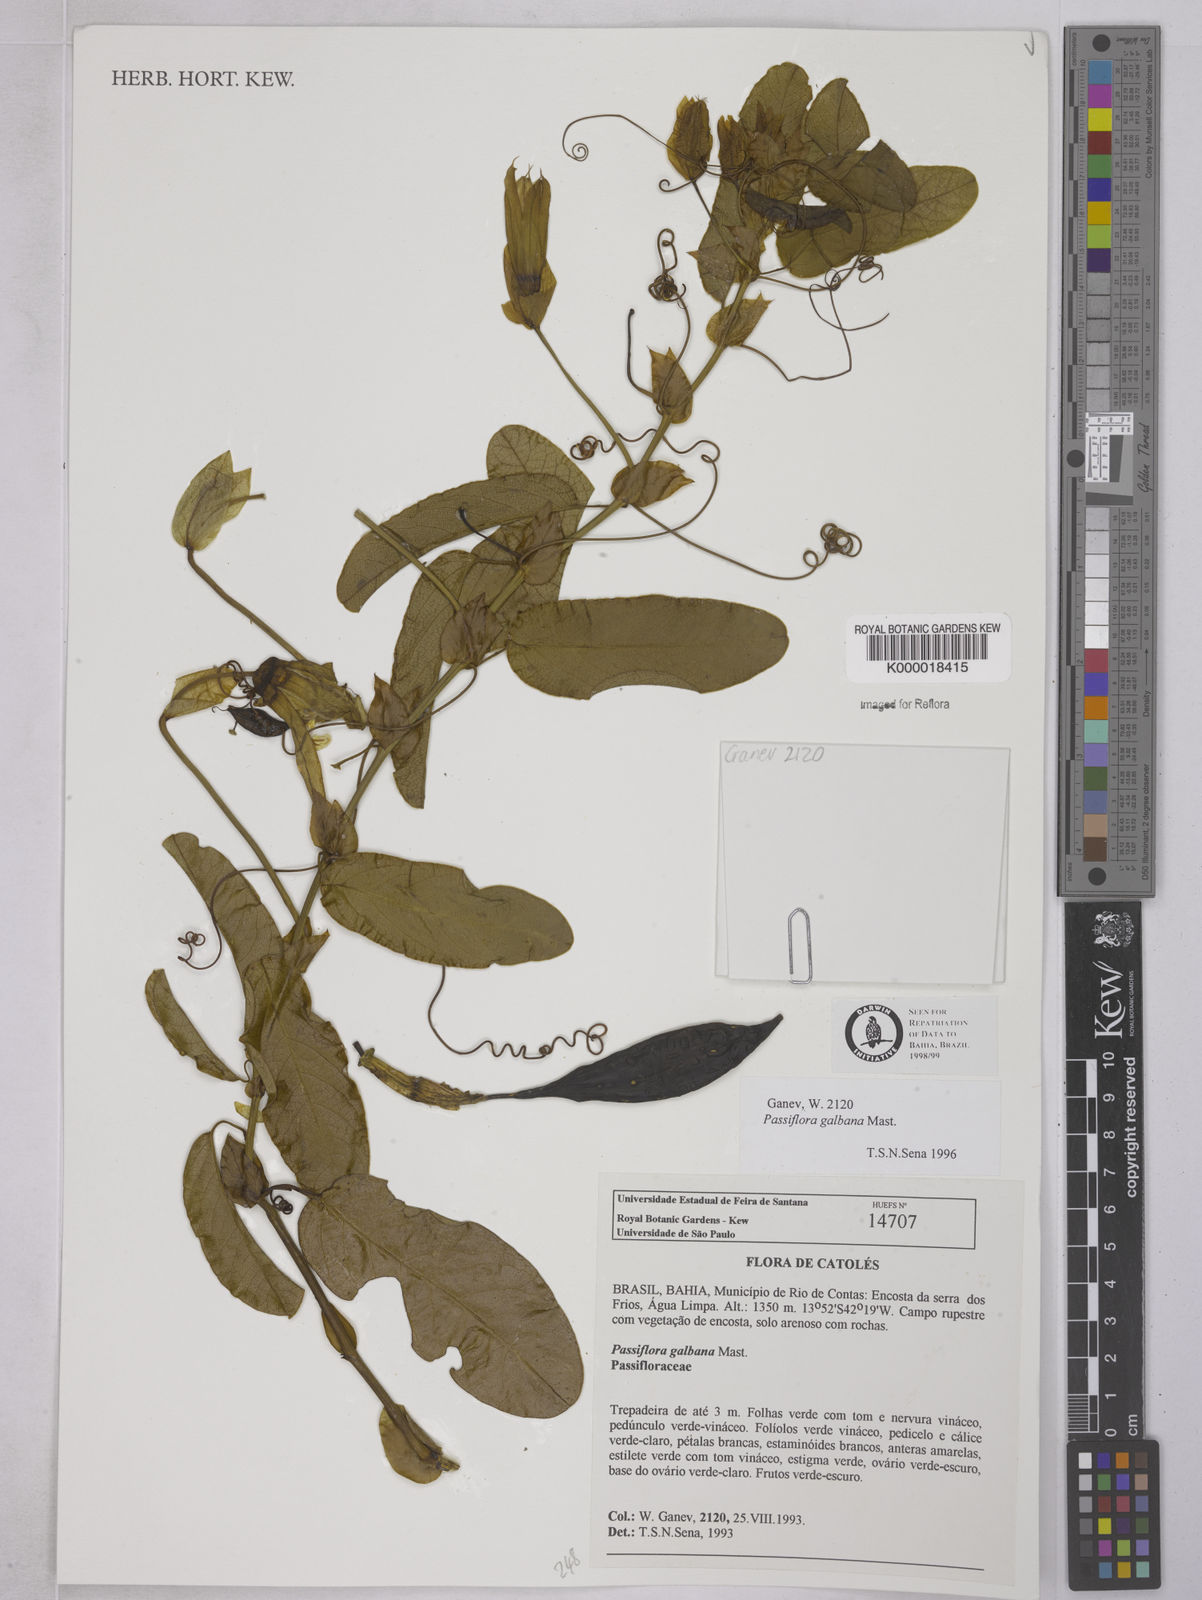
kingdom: Plantae
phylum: Tracheophyta
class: Magnoliopsida
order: Malpighiales
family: Passifloraceae
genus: Passiflora
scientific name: Passiflora silvestris
